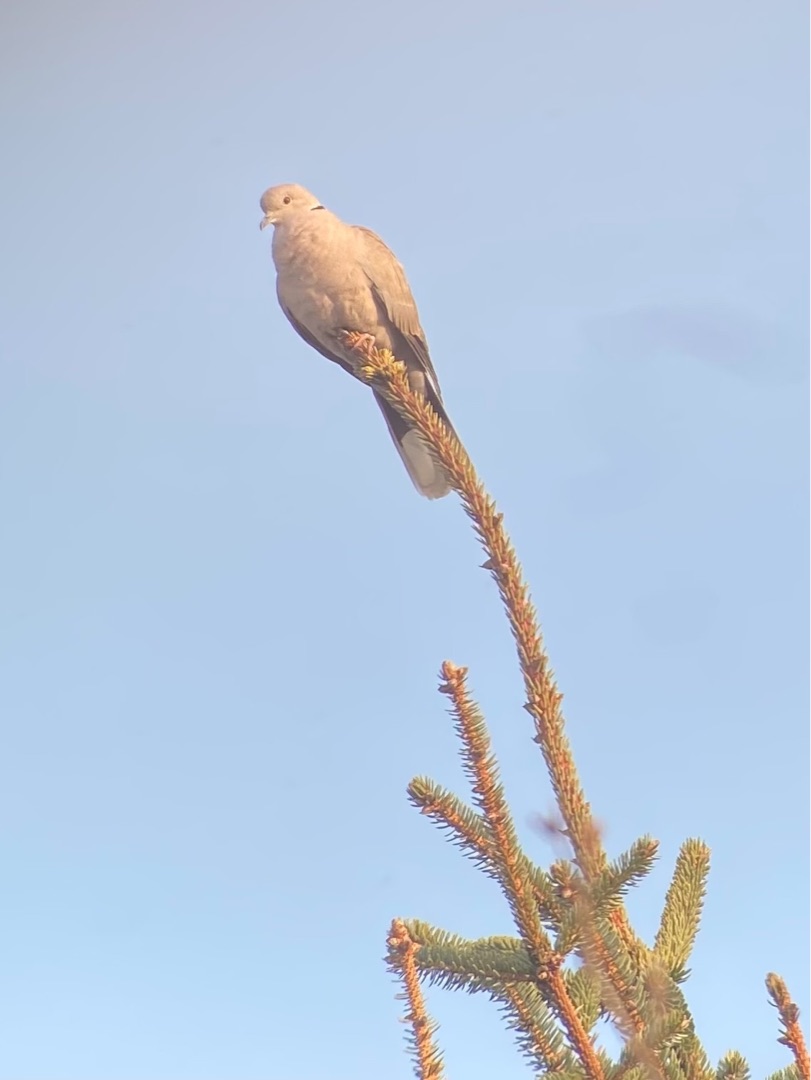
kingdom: Animalia
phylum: Chordata
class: Aves
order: Columbiformes
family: Columbidae
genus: Streptopelia
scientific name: Streptopelia decaocto
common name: Tyrkerdue
